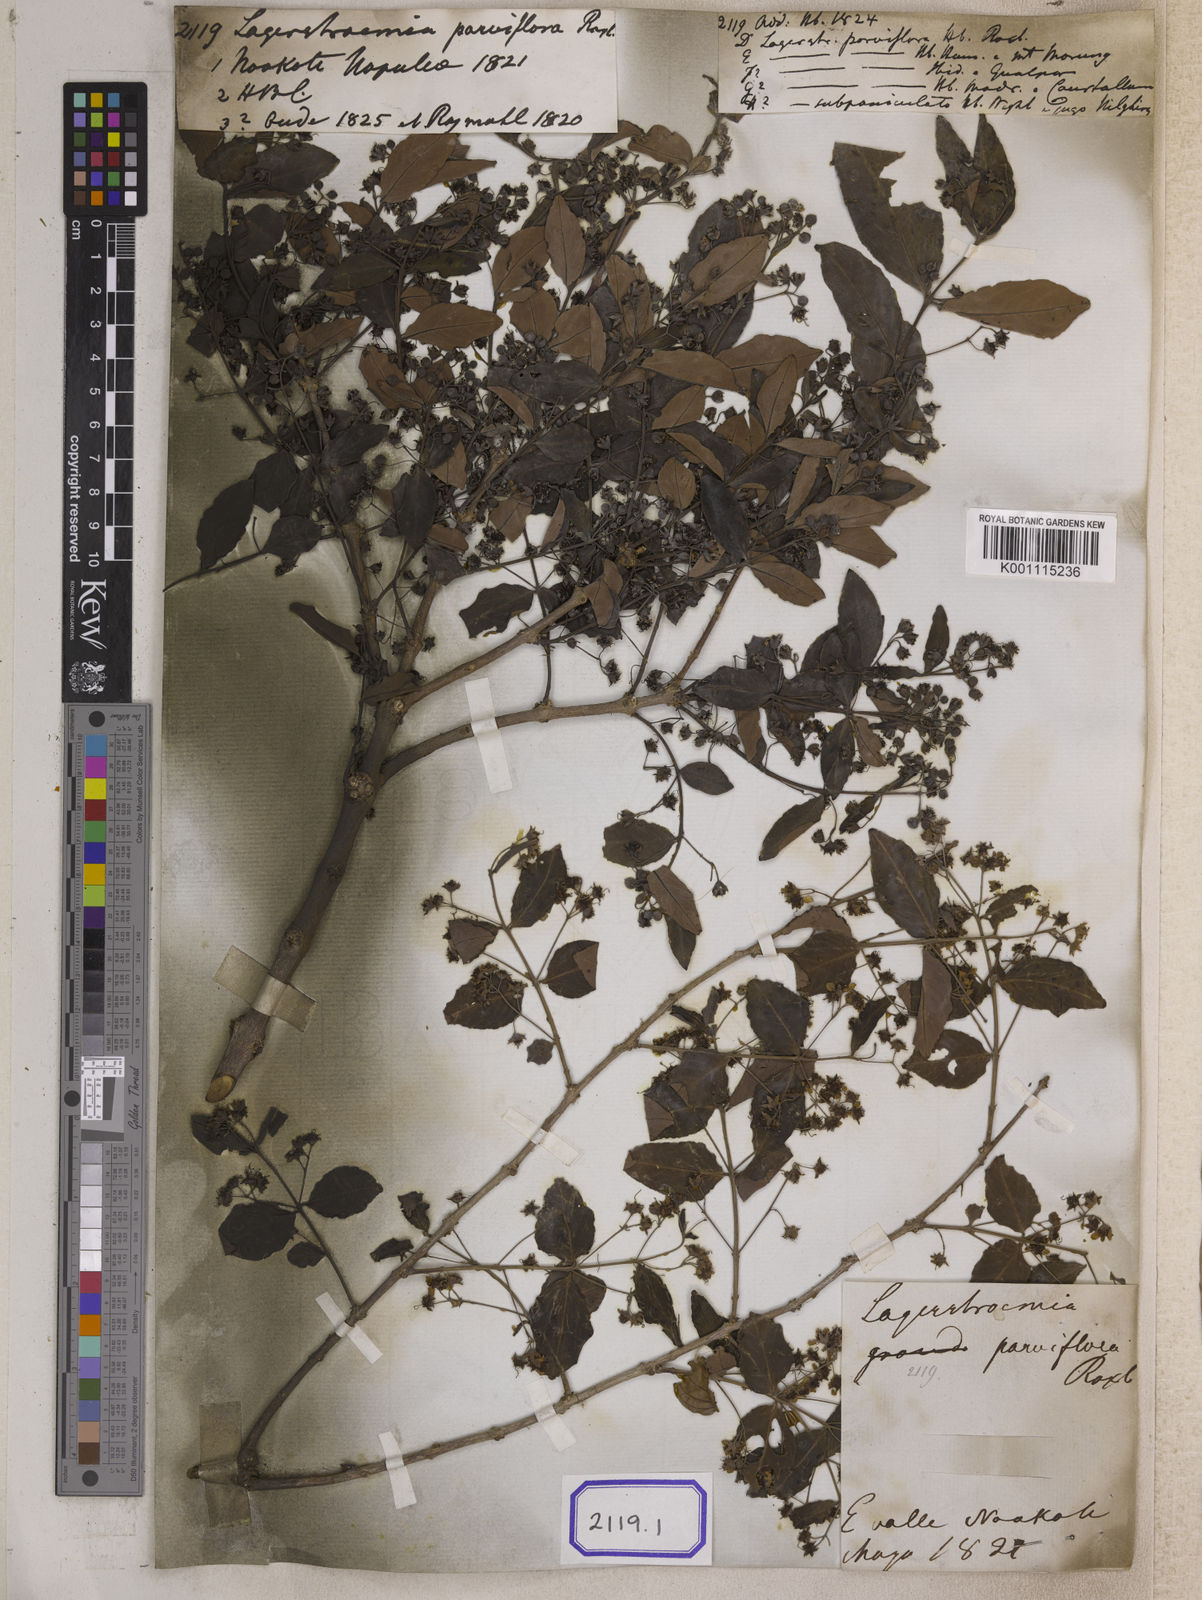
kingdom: Plantae
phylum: Tracheophyta
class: Magnoliopsida
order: Myrtales
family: Lythraceae
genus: Lagerstroemia
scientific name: Lagerstroemia parviflora
